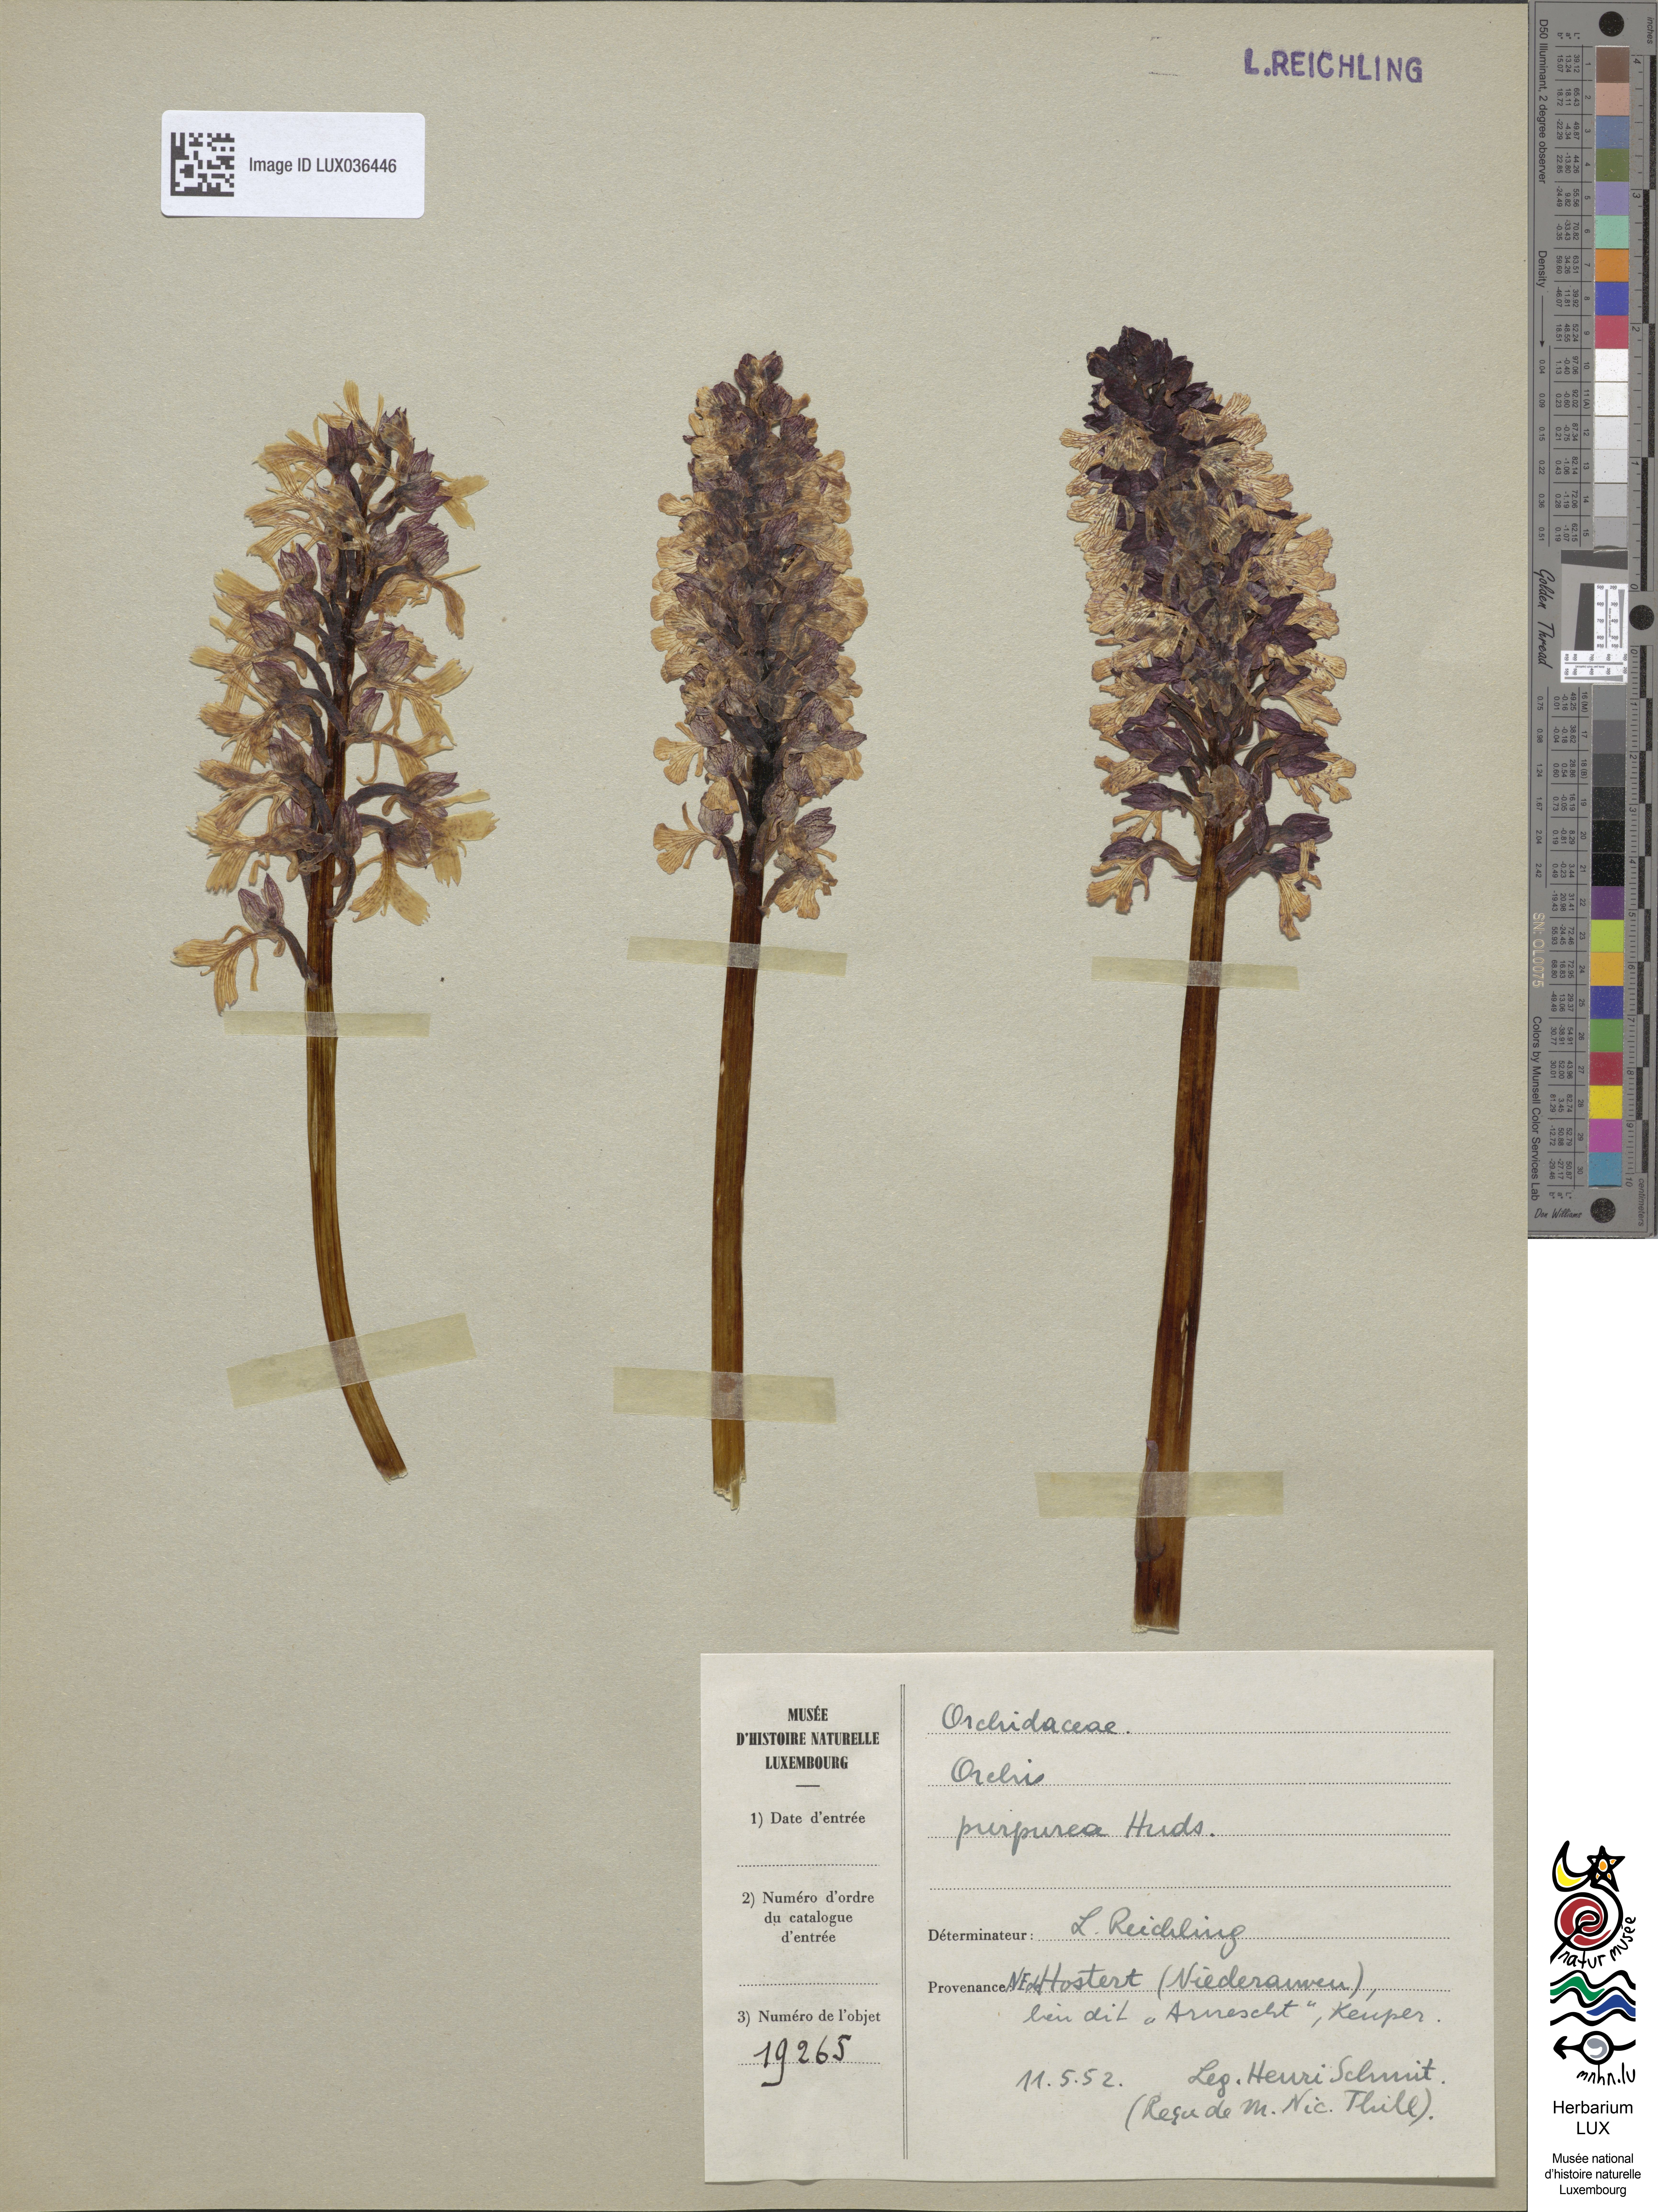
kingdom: Plantae
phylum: Tracheophyta
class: Liliopsida
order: Asparagales
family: Orchidaceae
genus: Orchis
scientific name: Orchis purpurea
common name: Lady orchid
